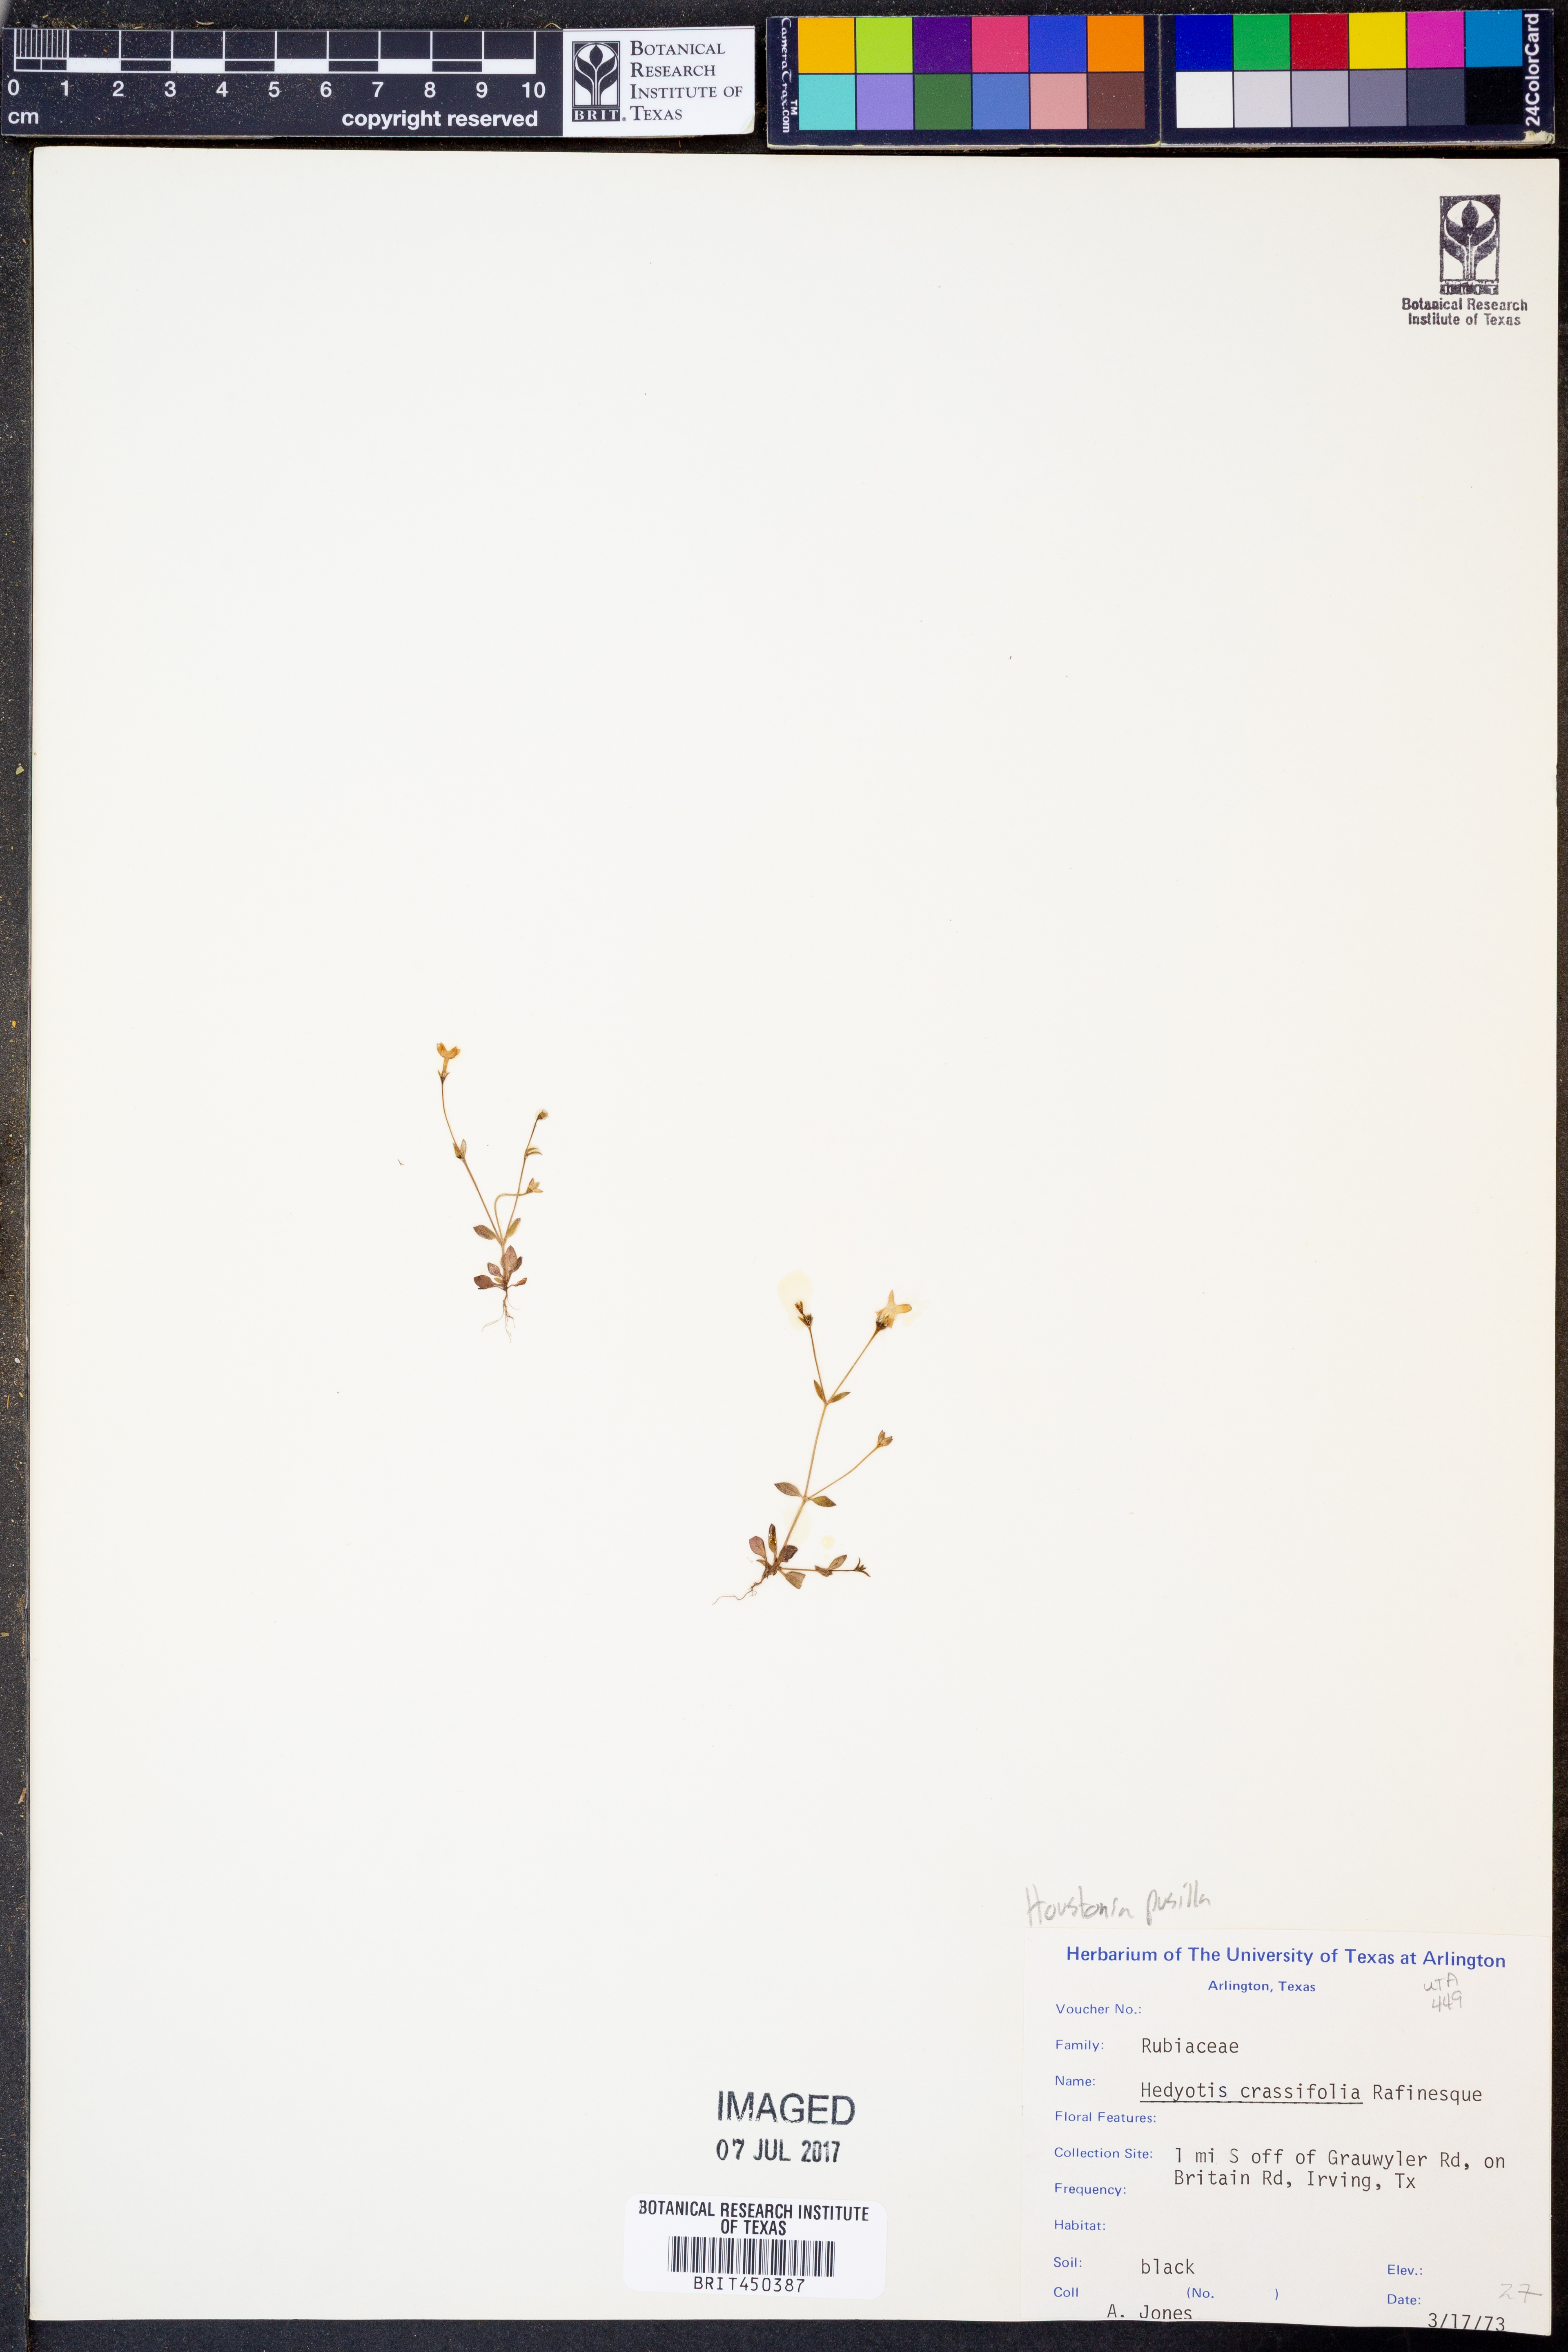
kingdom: Plantae
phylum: Tracheophyta
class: Magnoliopsida
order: Gentianales
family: Rubiaceae
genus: Oldenlandia
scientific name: Oldenlandia corymbosa
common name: Flat-top mille graines
